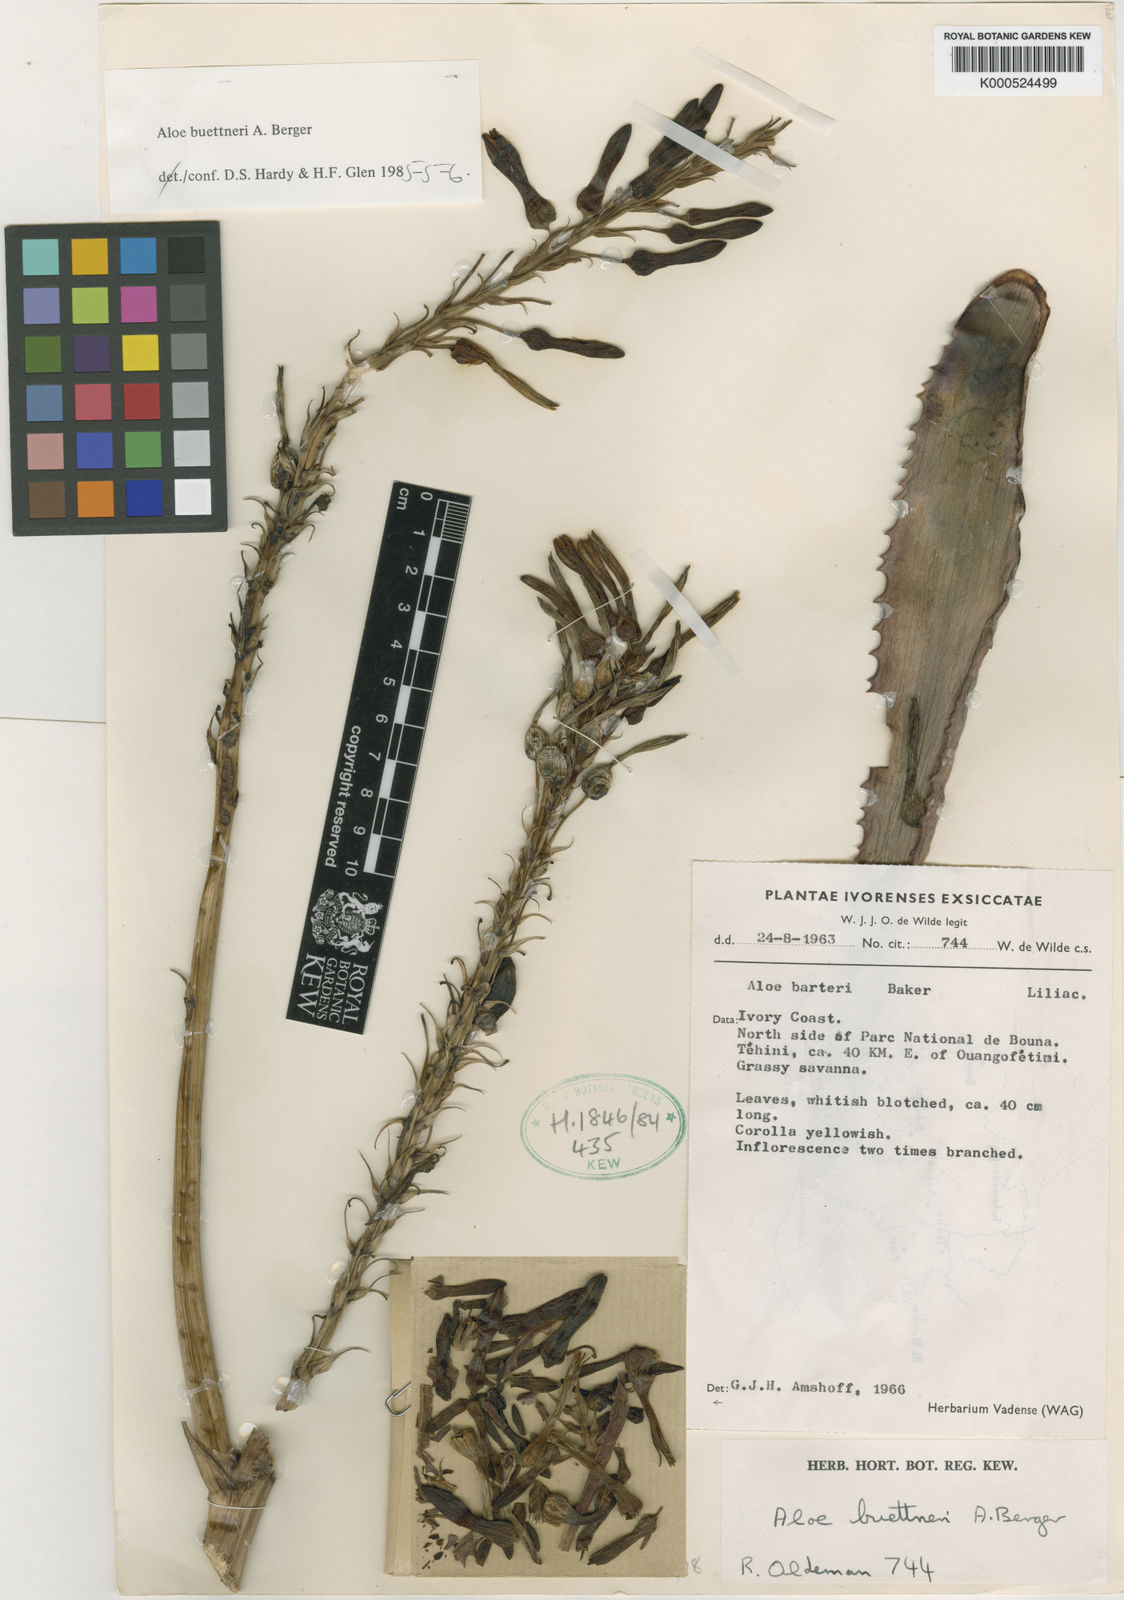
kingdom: Plantae
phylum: Tracheophyta
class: Liliopsida
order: Asparagales
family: Asphodelaceae
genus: Aloe
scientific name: Aloe buettneri
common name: West african aloe
